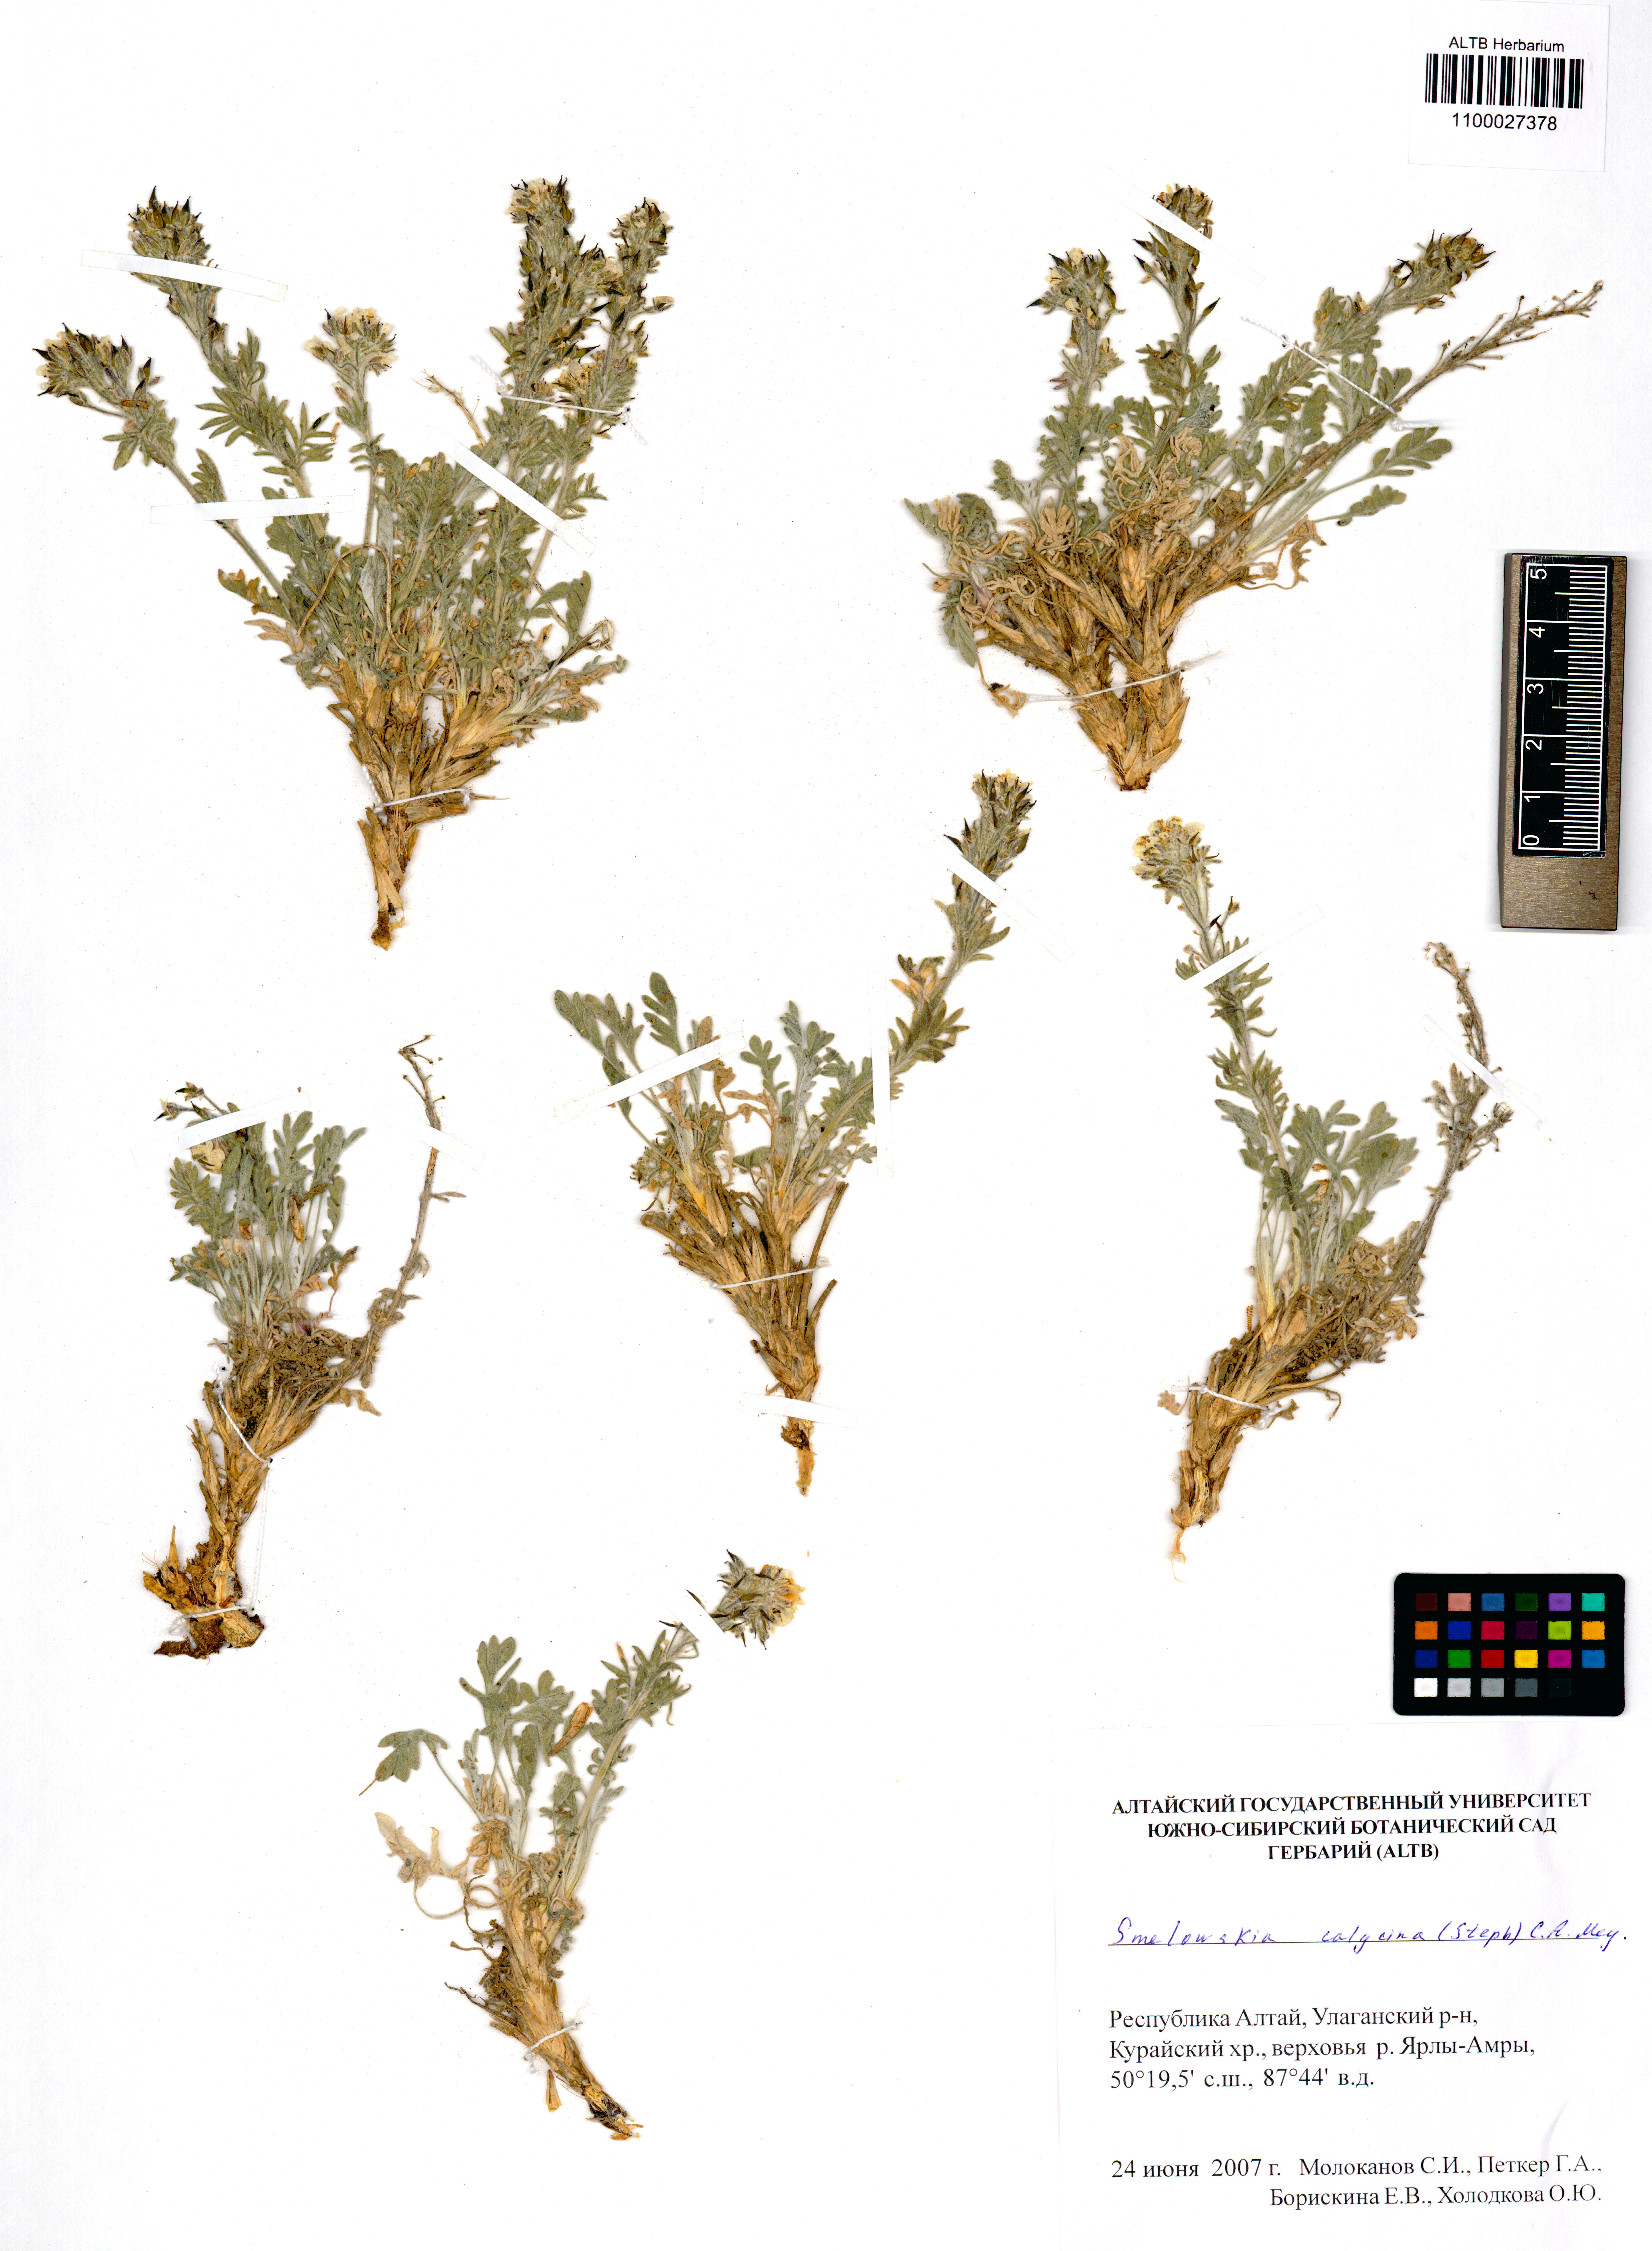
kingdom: Plantae
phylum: Tracheophyta
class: Magnoliopsida
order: Brassicales
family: Brassicaceae
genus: Smelowskia
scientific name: Smelowskia calycina
